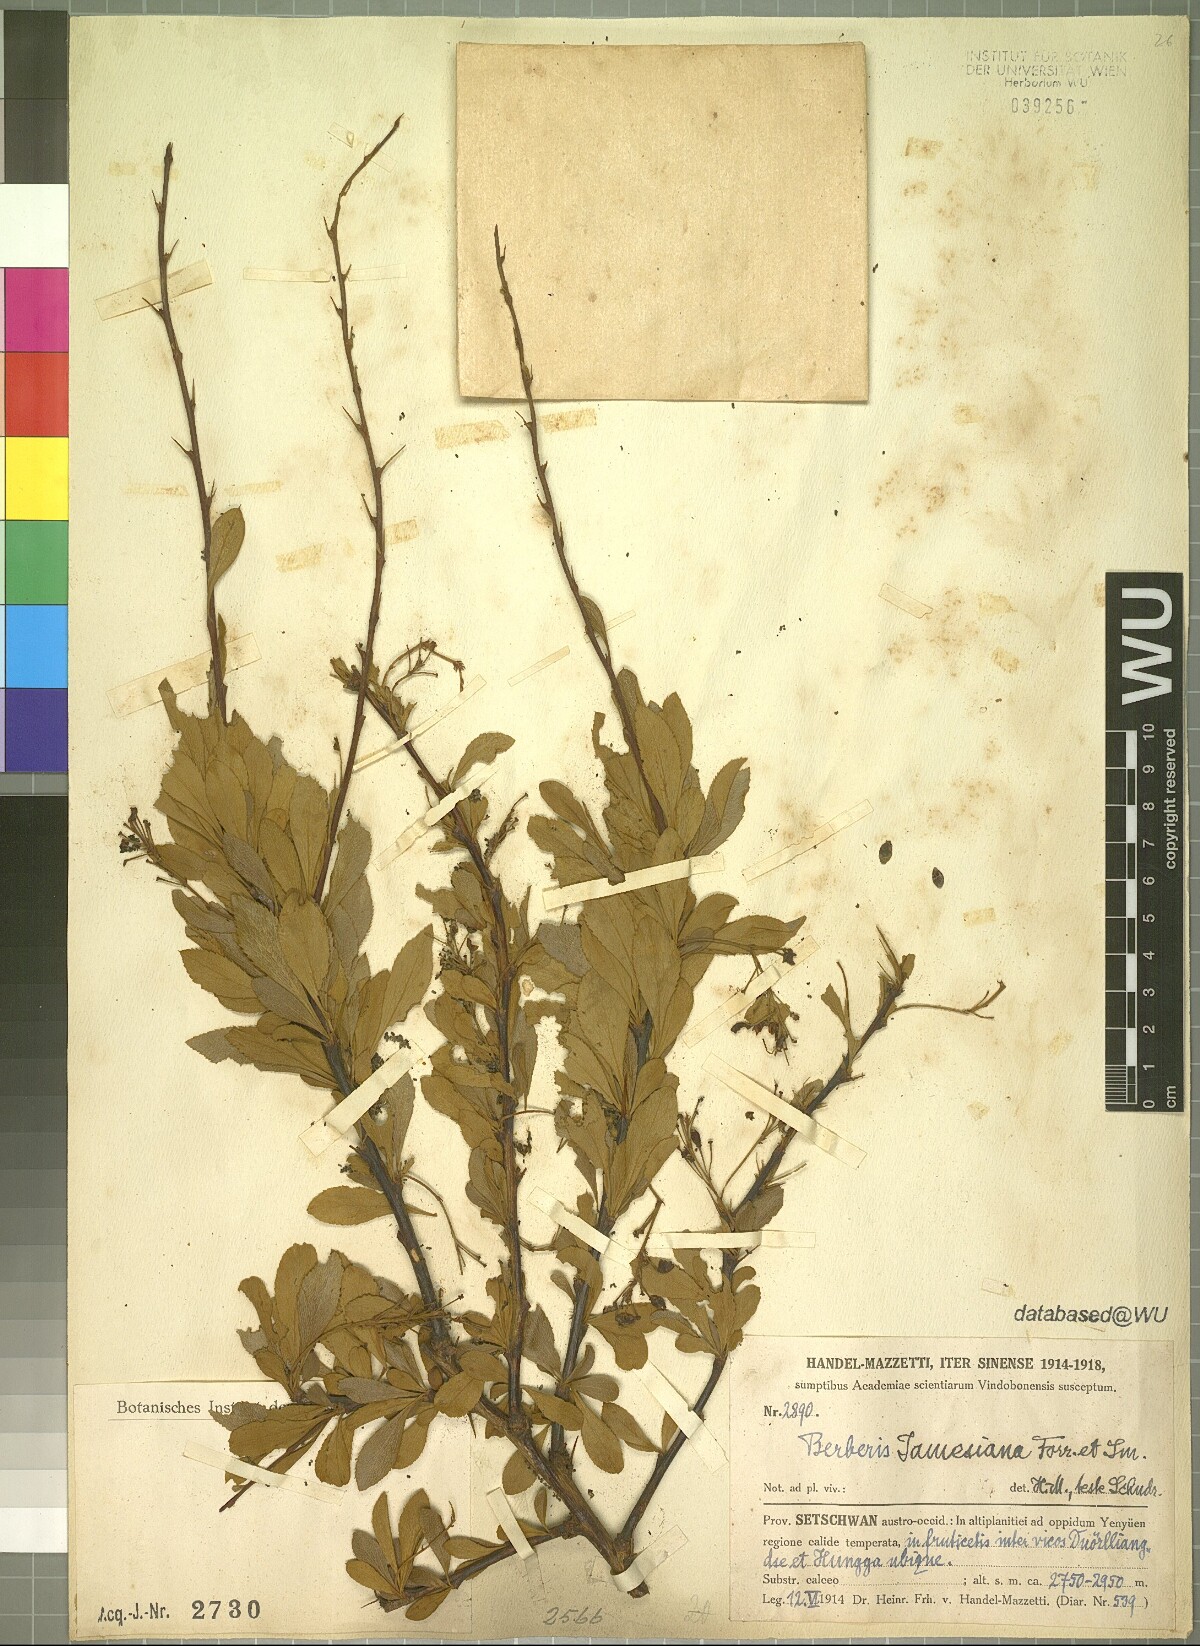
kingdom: Plantae
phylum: Tracheophyta
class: Magnoliopsida
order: Ranunculales
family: Berberidaceae
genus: Berberis
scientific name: Berberis jamesiana
